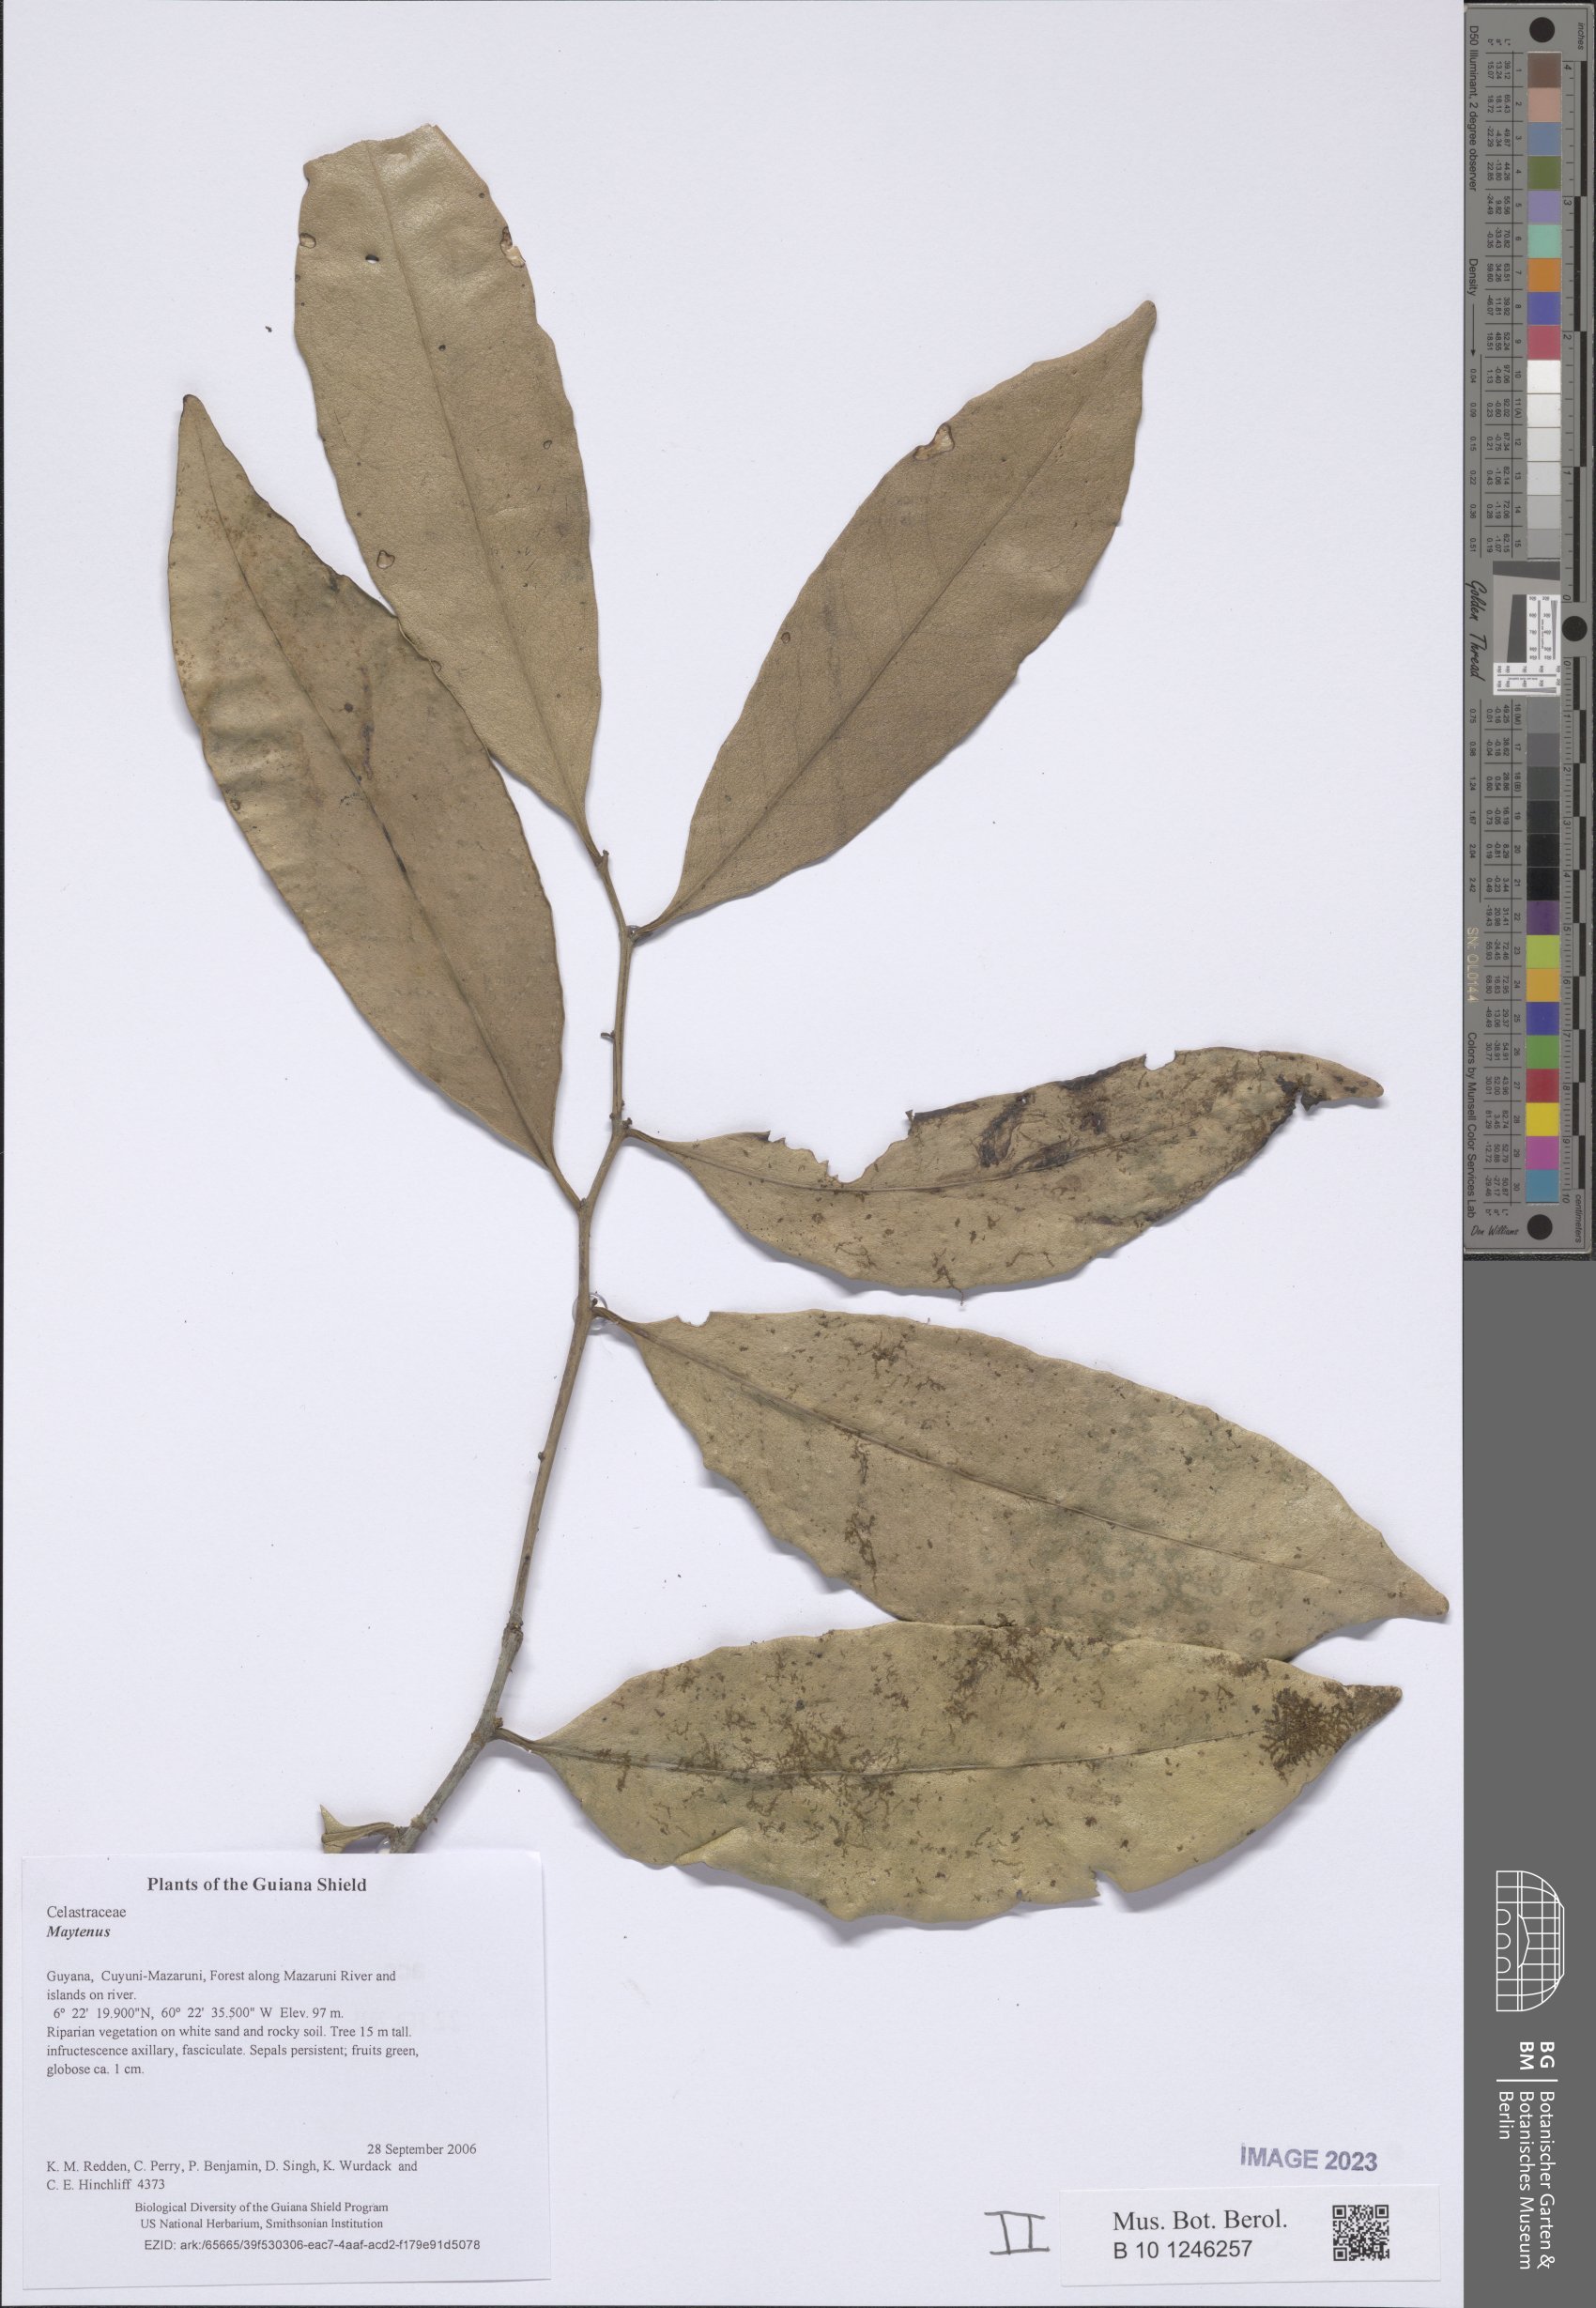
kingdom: Plantae
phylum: Tracheophyta
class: Magnoliopsida
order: Celastrales
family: Celastraceae
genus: Maytenus
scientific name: Maytenus
